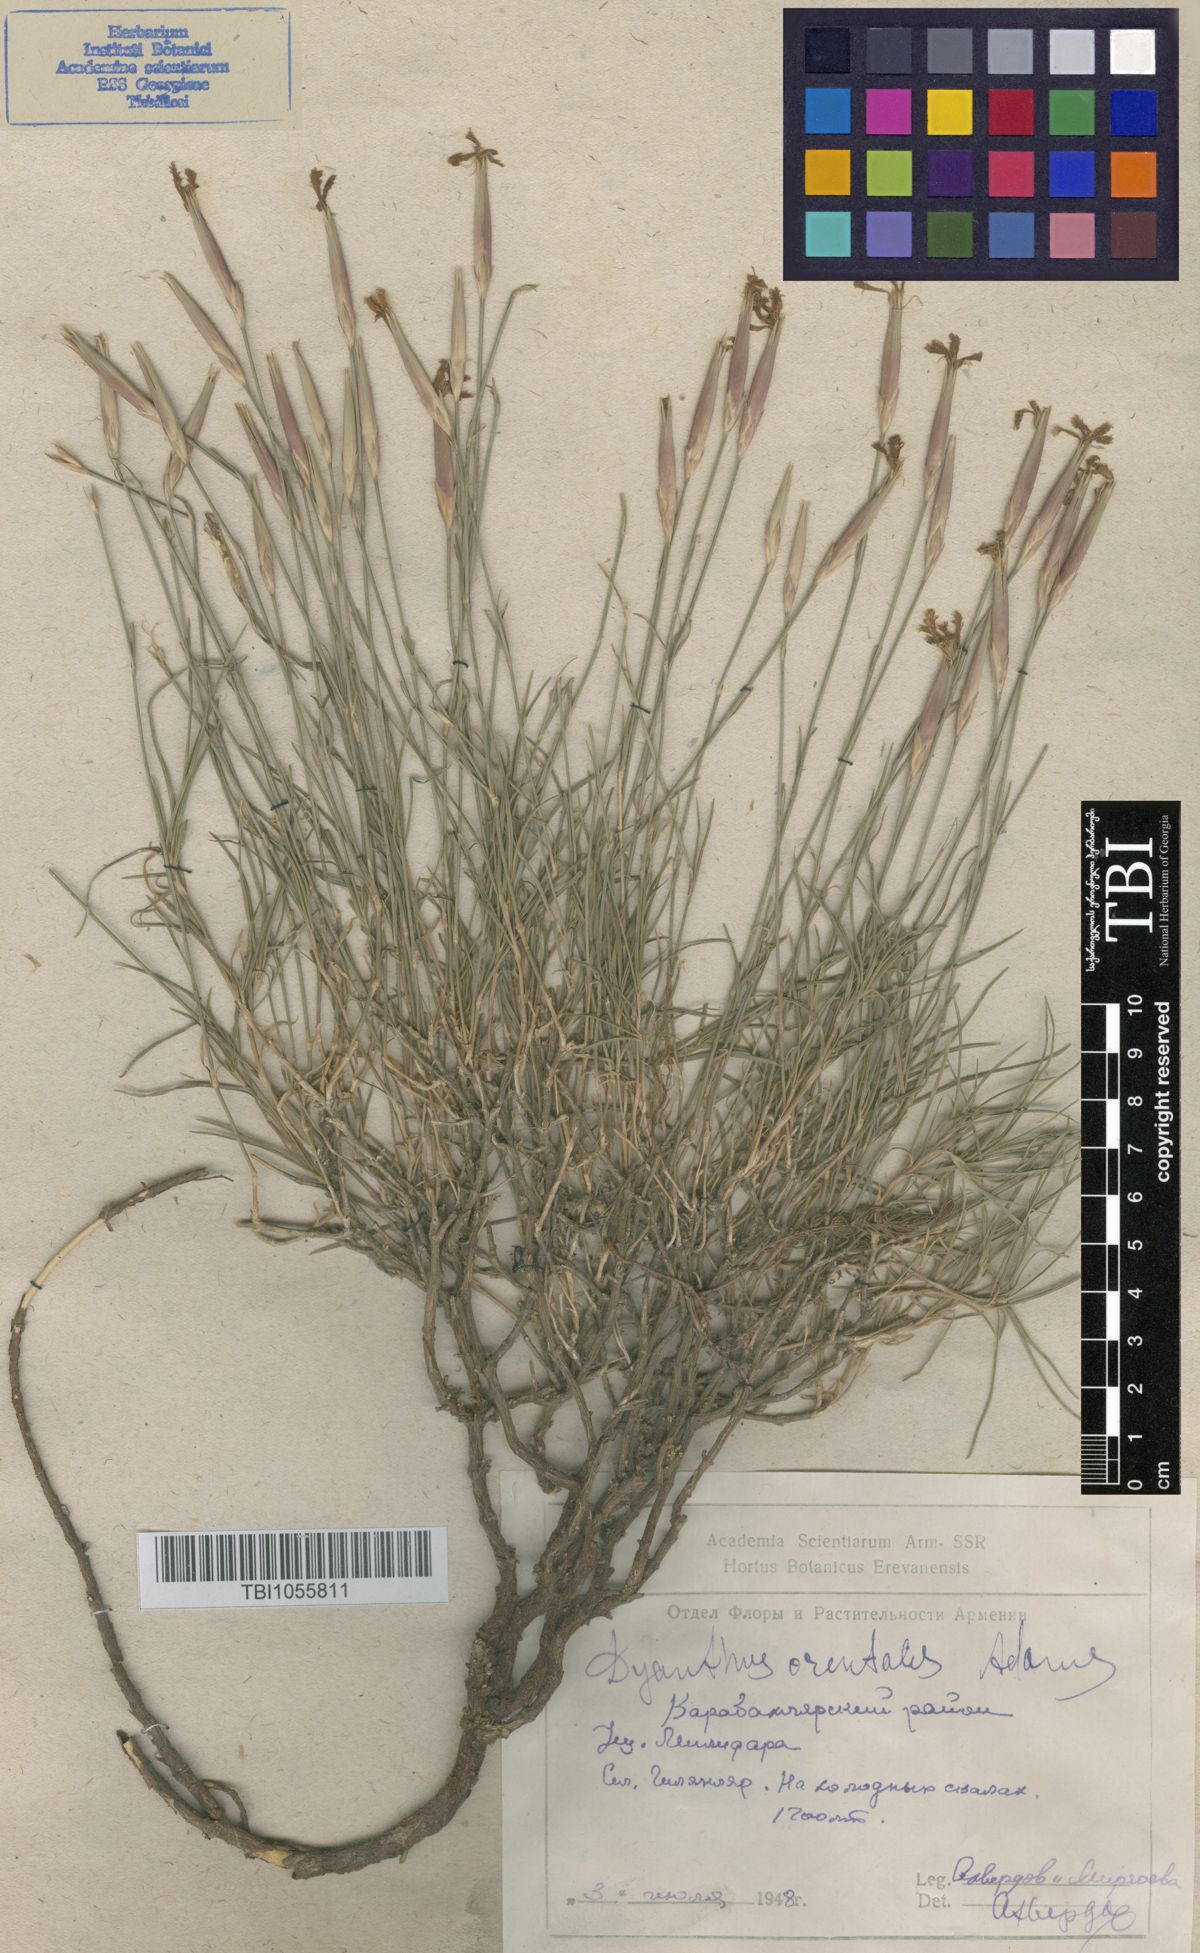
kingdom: Plantae
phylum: Tracheophyta
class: Magnoliopsida
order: Caryophyllales
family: Caryophyllaceae
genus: Dianthus
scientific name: Dianthus orientalis
